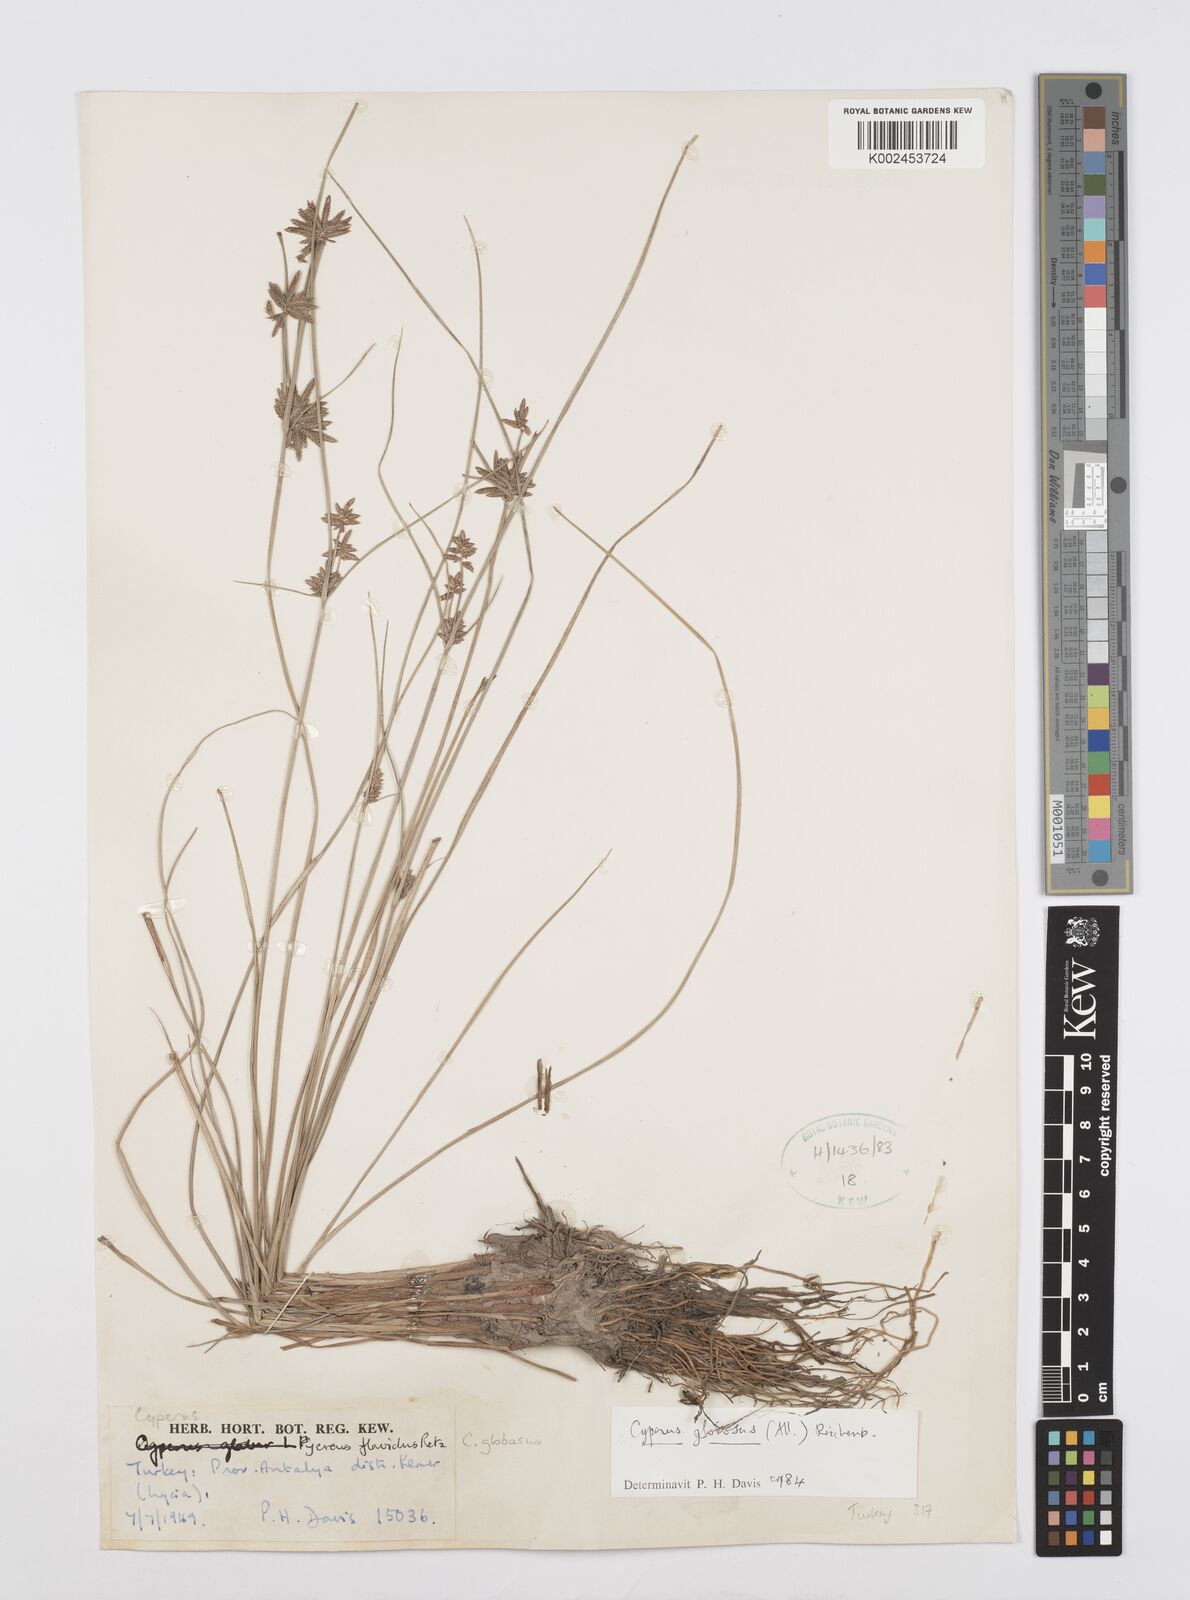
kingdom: Plantae
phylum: Tracheophyta
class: Liliopsida
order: Poales
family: Cyperaceae
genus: Cyperus
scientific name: Cyperus flavidus
